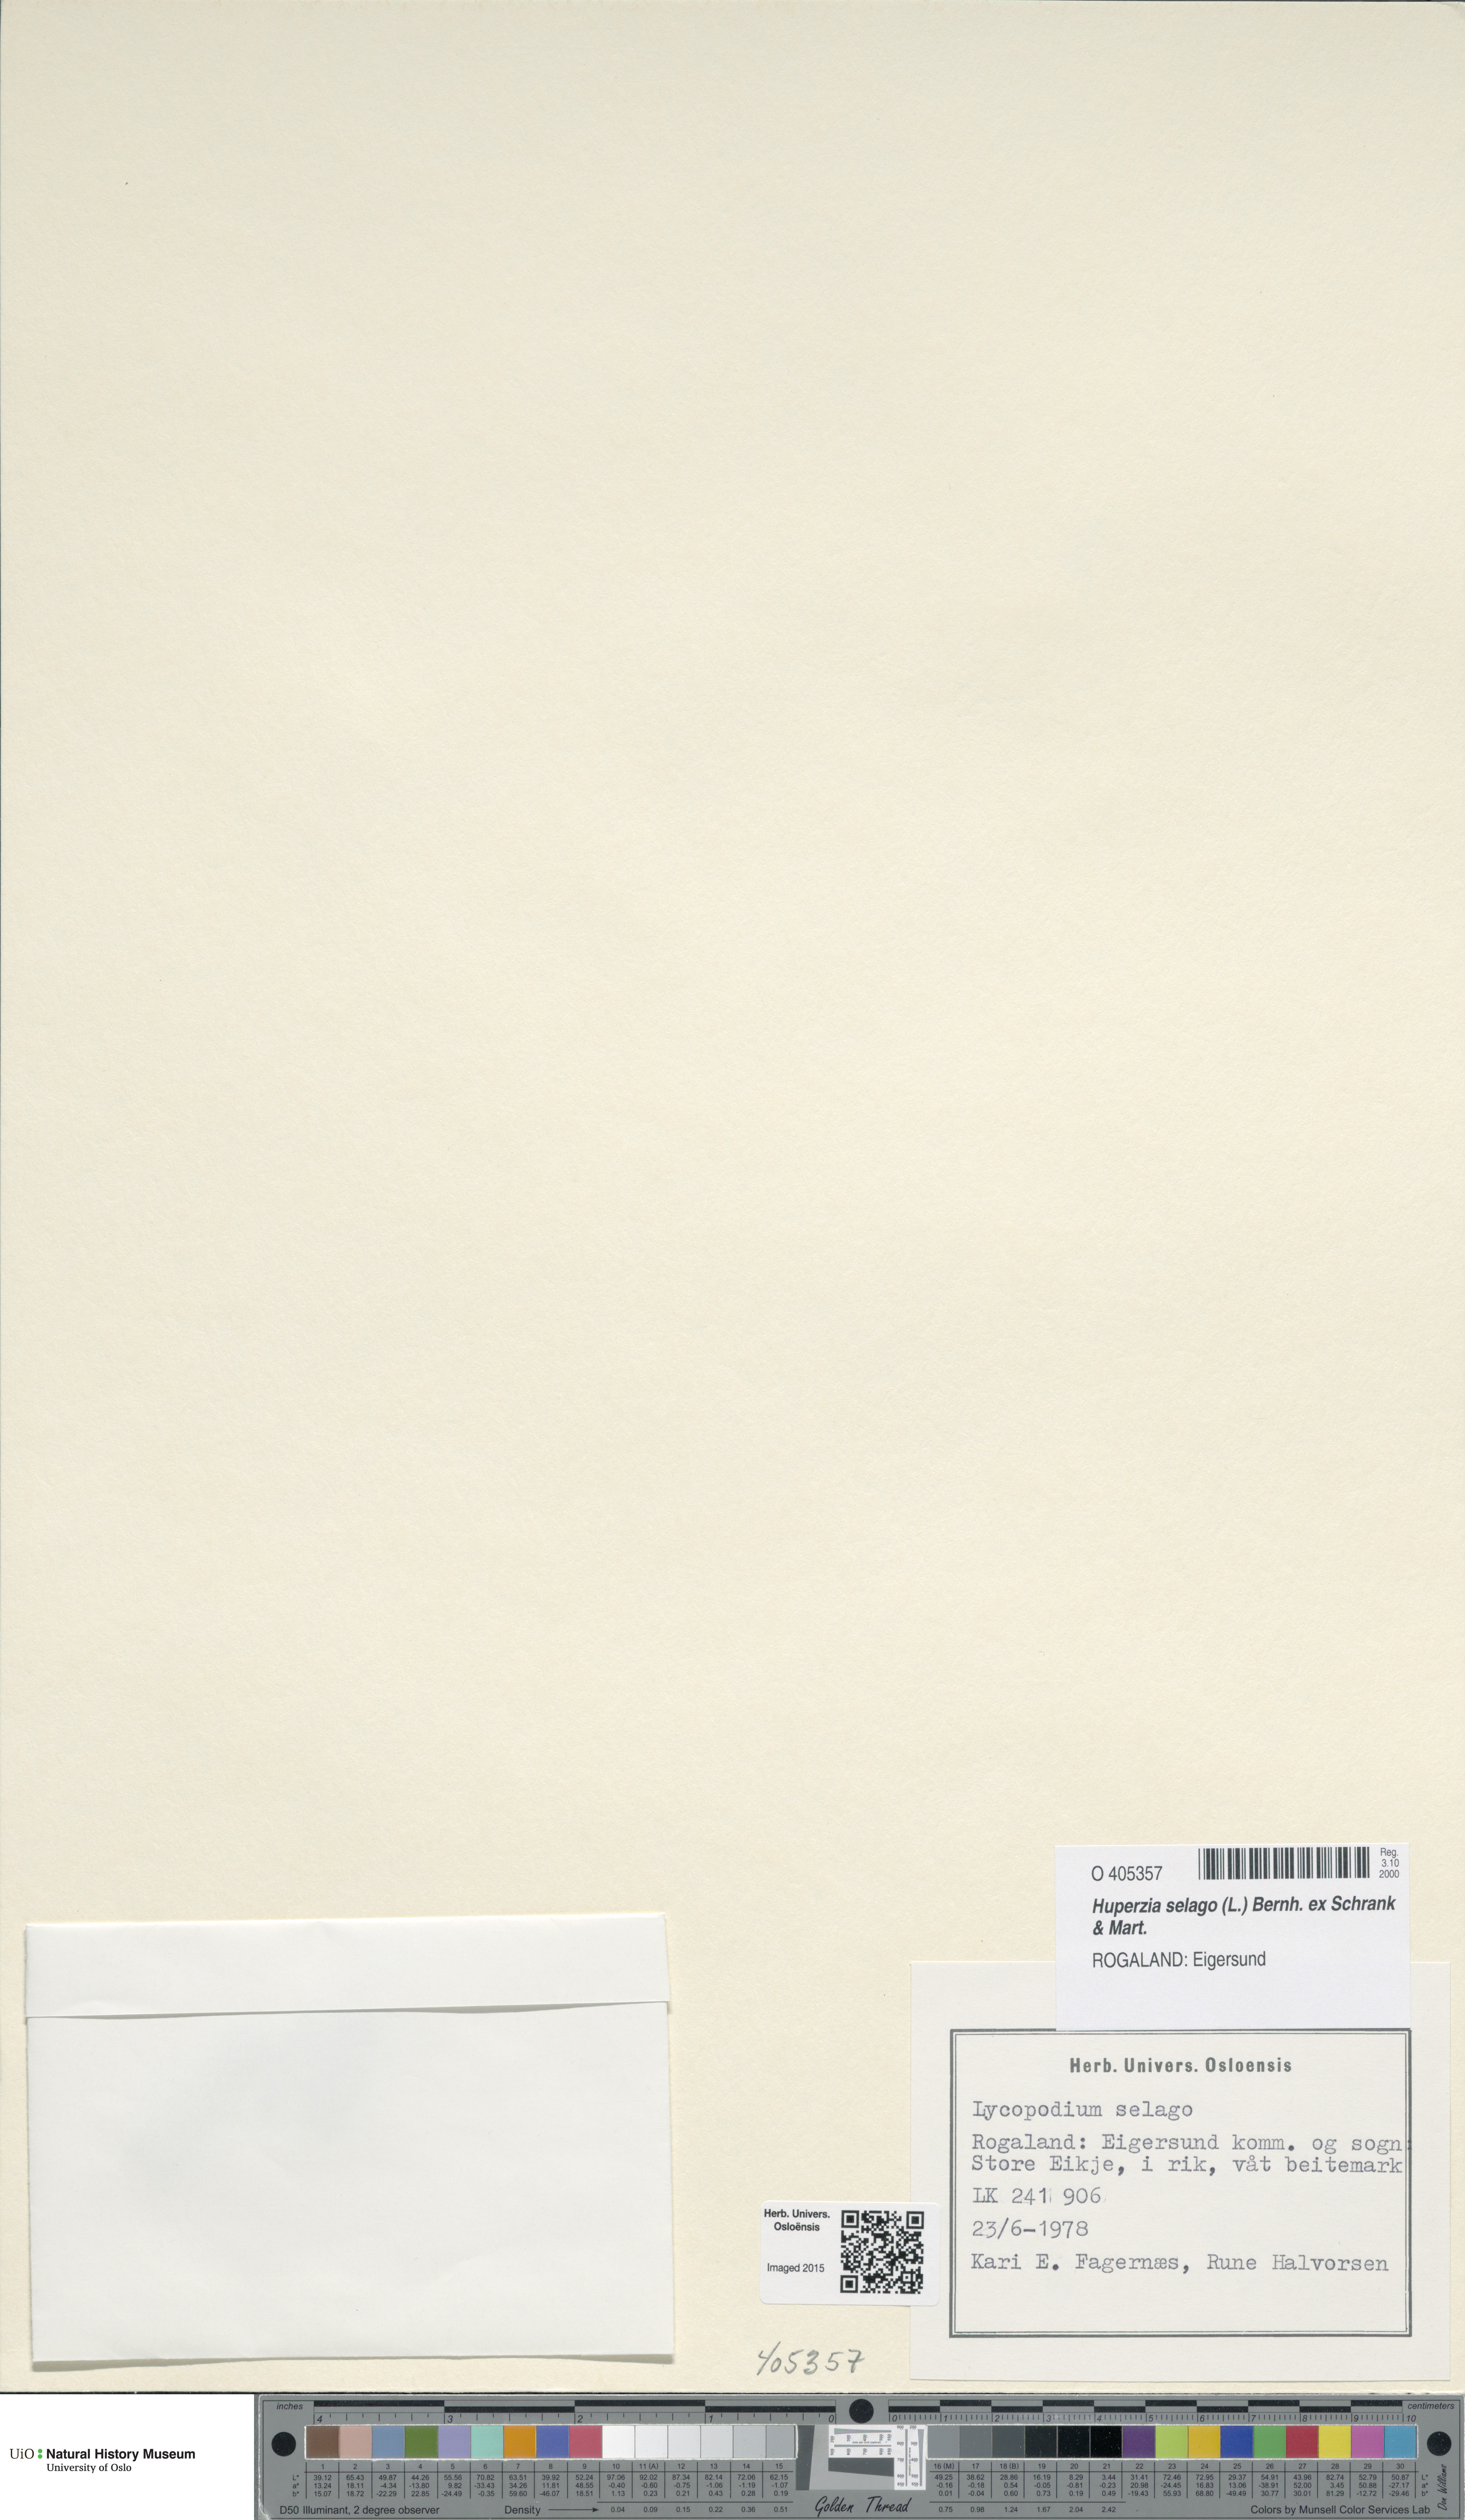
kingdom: Plantae
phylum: Tracheophyta
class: Lycopodiopsida
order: Lycopodiales
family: Lycopodiaceae
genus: Huperzia
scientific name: Huperzia selago
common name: Northern firmoss
